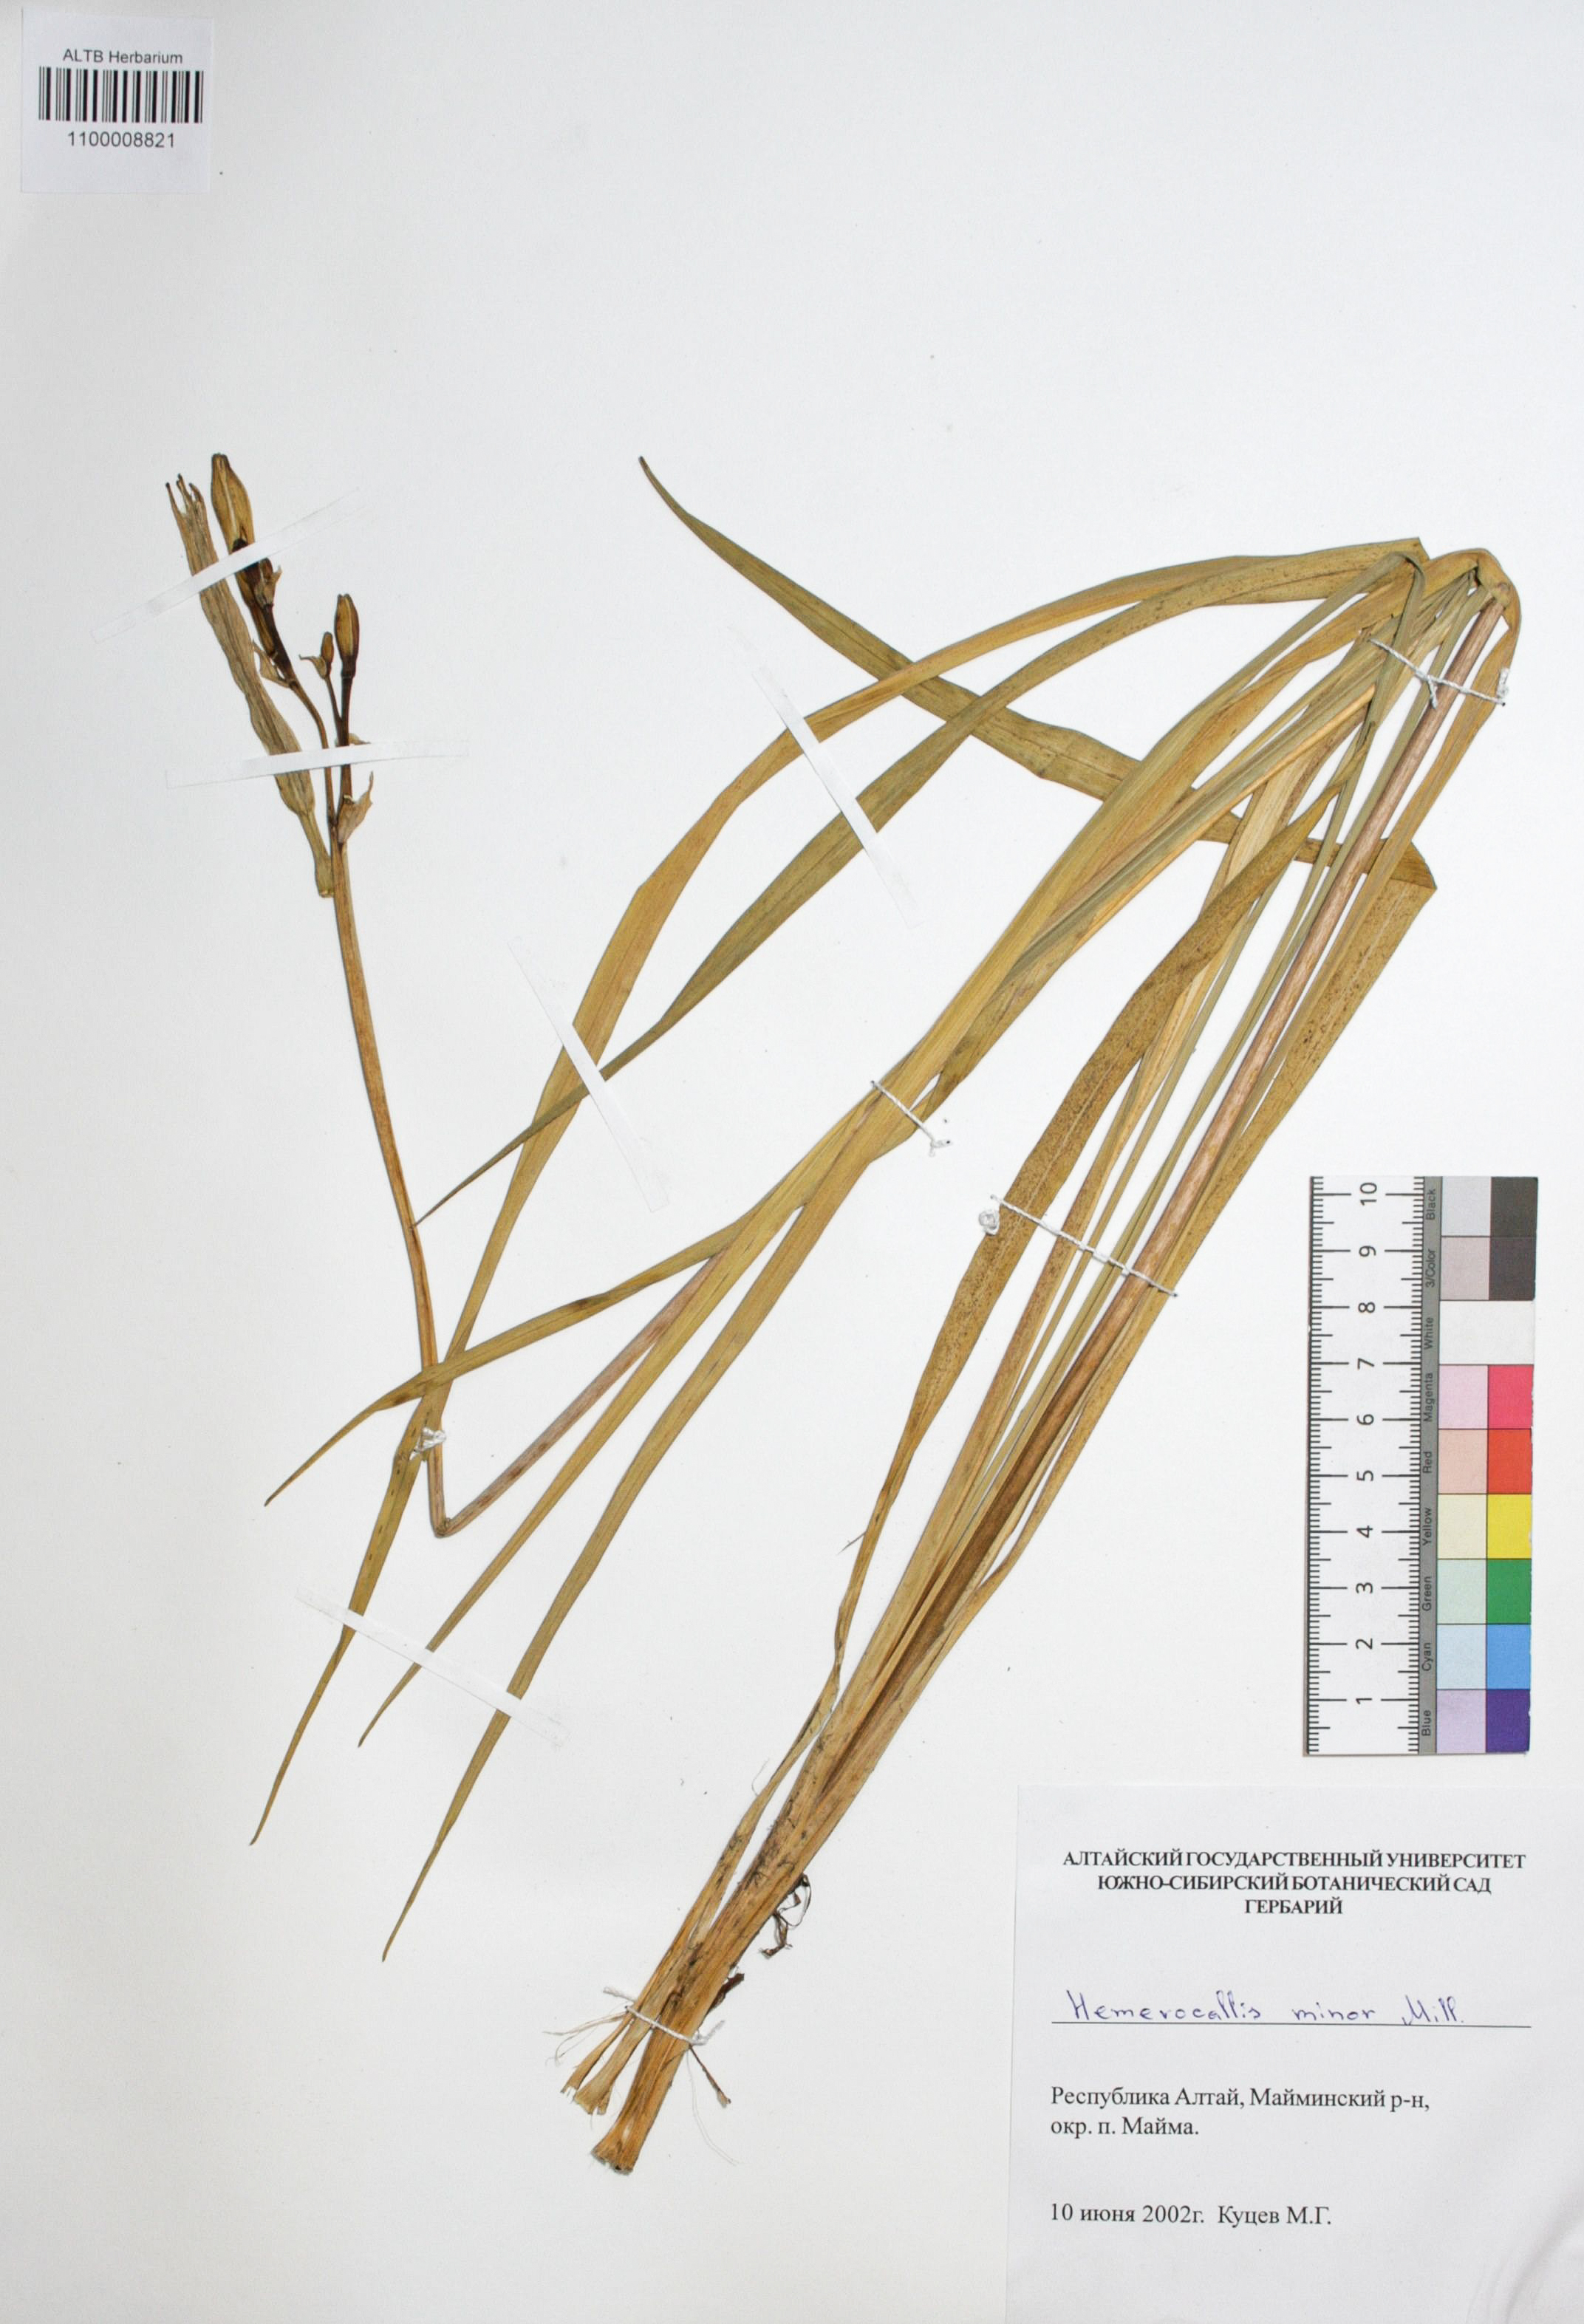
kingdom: Plantae
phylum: Tracheophyta
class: Liliopsida
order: Asparagales
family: Asphodelaceae
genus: Hemerocallis
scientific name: Hemerocallis minor
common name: Small daylily
